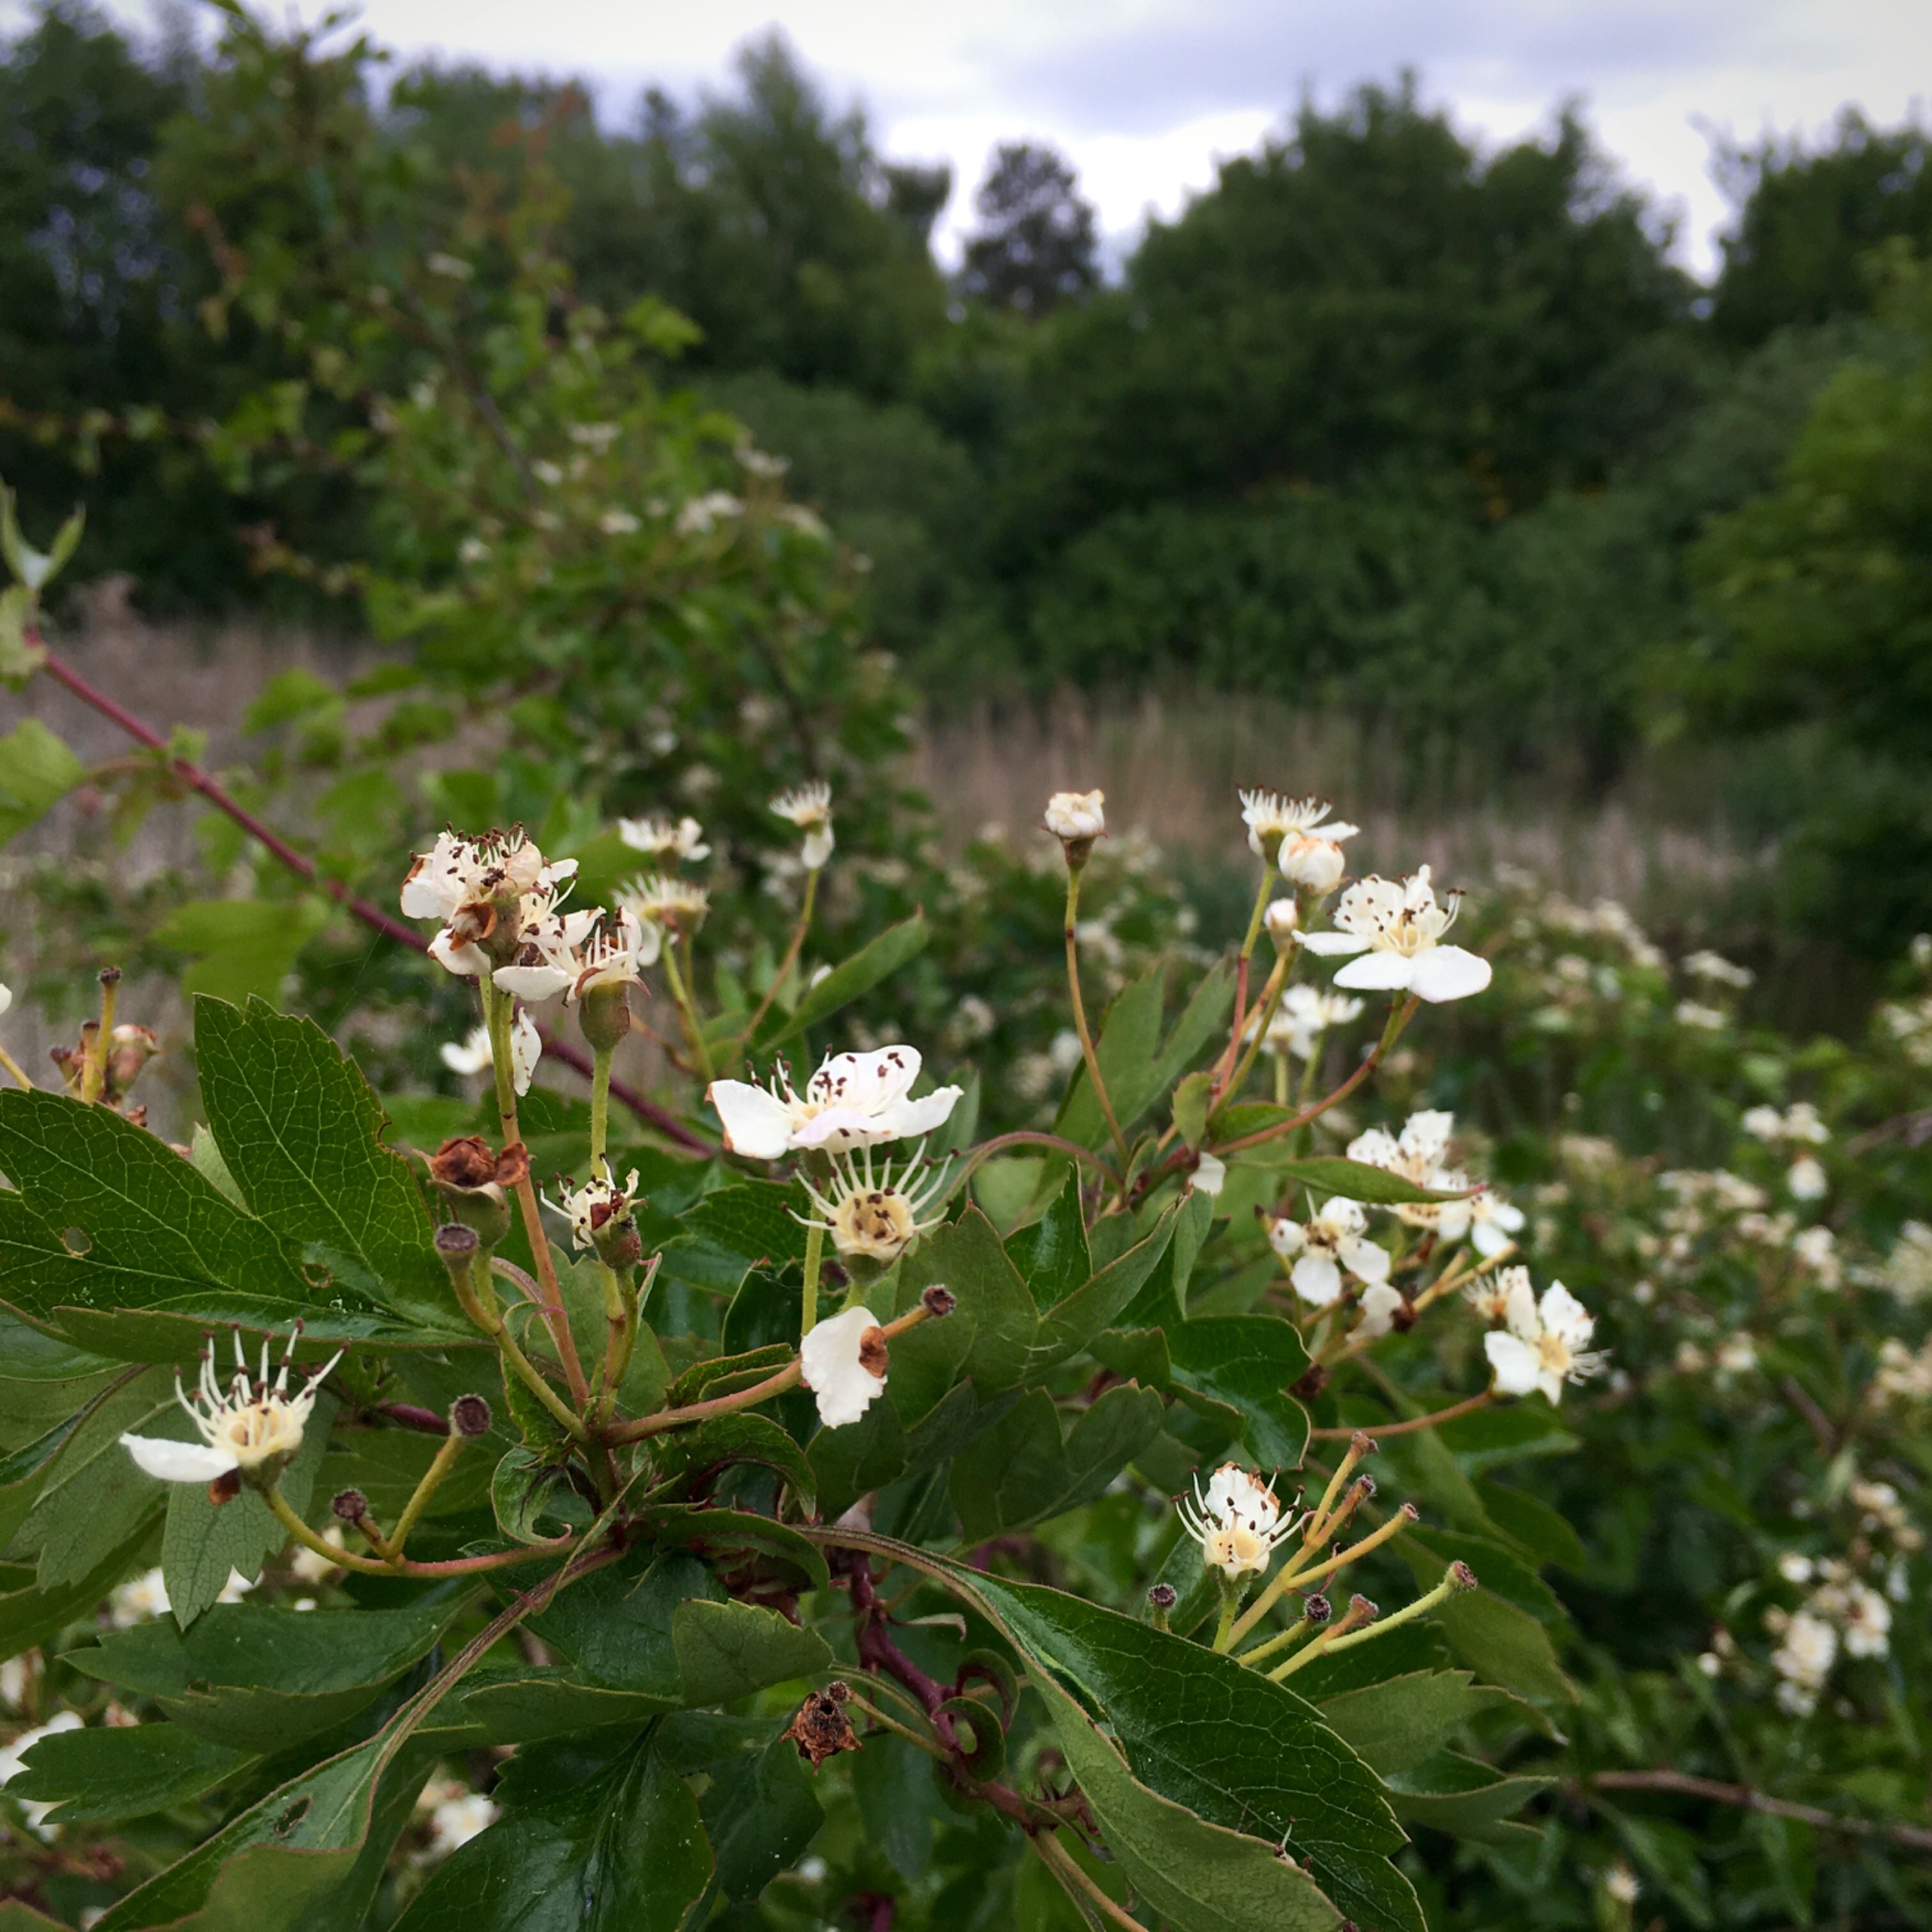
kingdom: Plantae
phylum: Tracheophyta
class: Magnoliopsida
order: Rosales
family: Rosaceae
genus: Crataegus
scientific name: Crataegus monogyna
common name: Engriflet hvidtjørn
